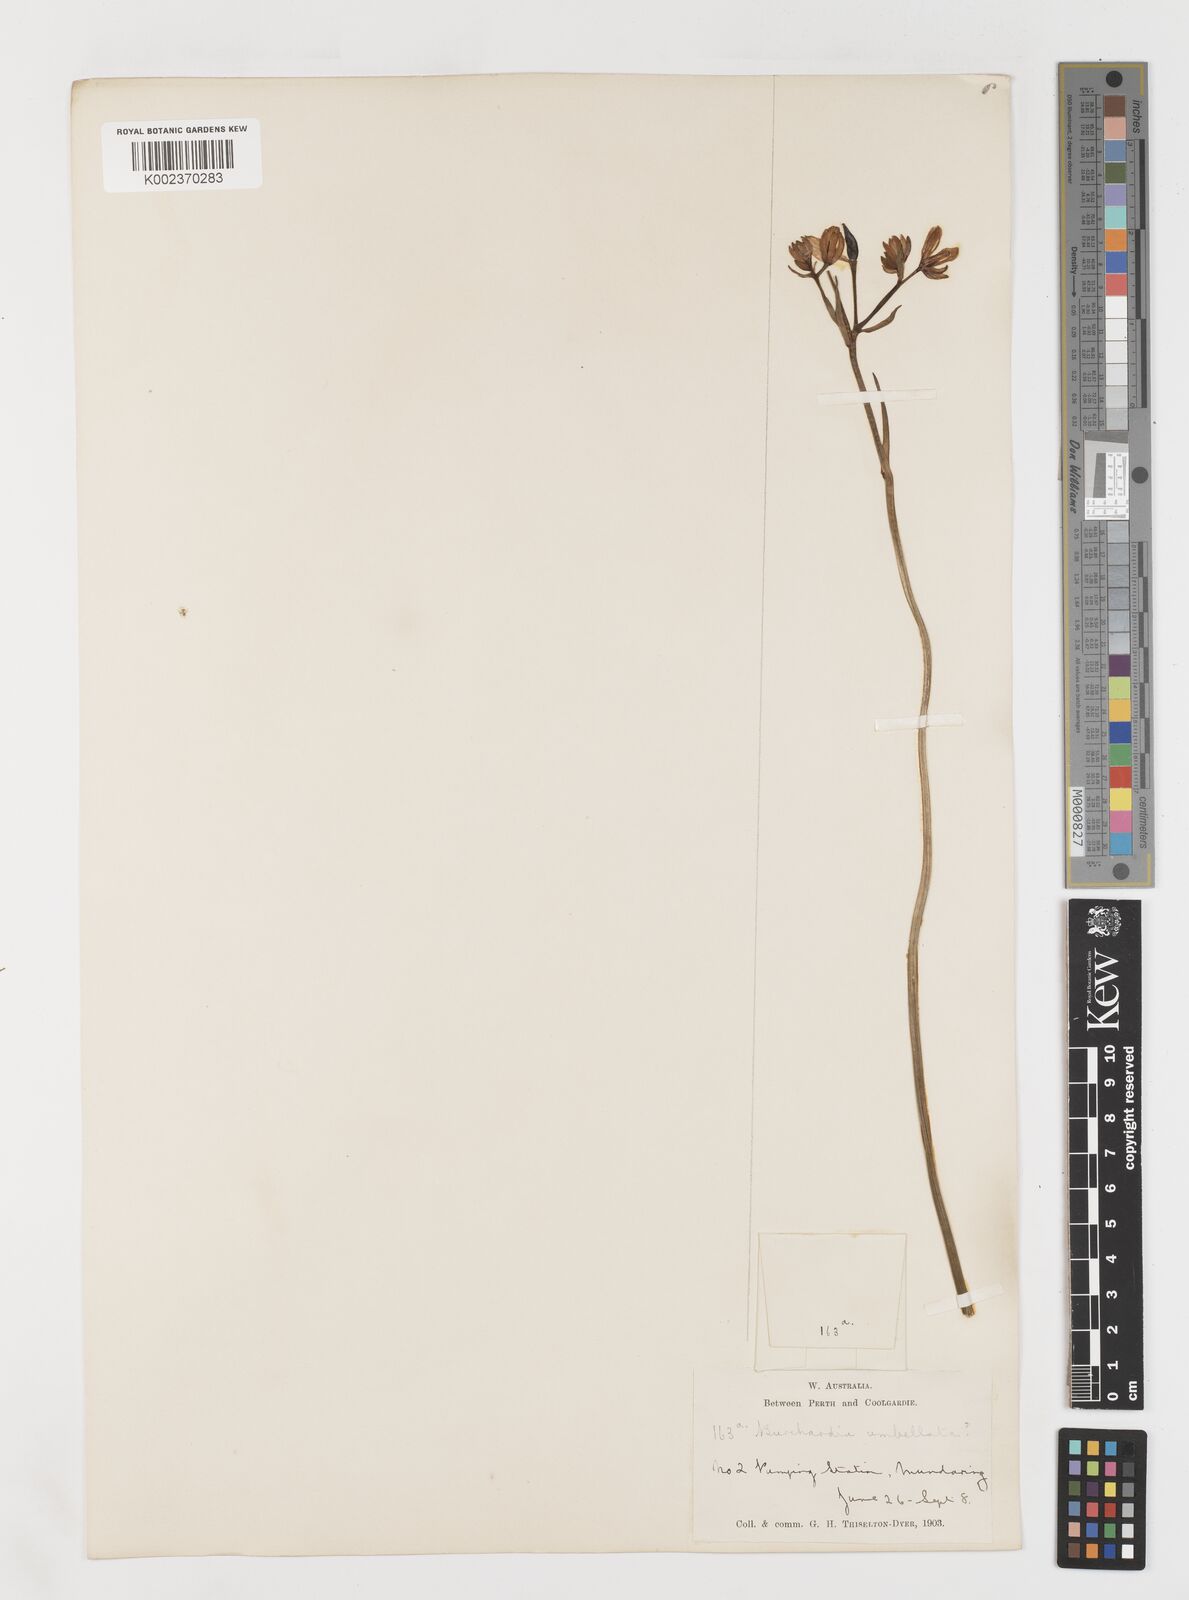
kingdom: Plantae
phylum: Tracheophyta
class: Liliopsida
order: Liliales
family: Colchicaceae
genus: Burchardia
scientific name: Burchardia umbellata
